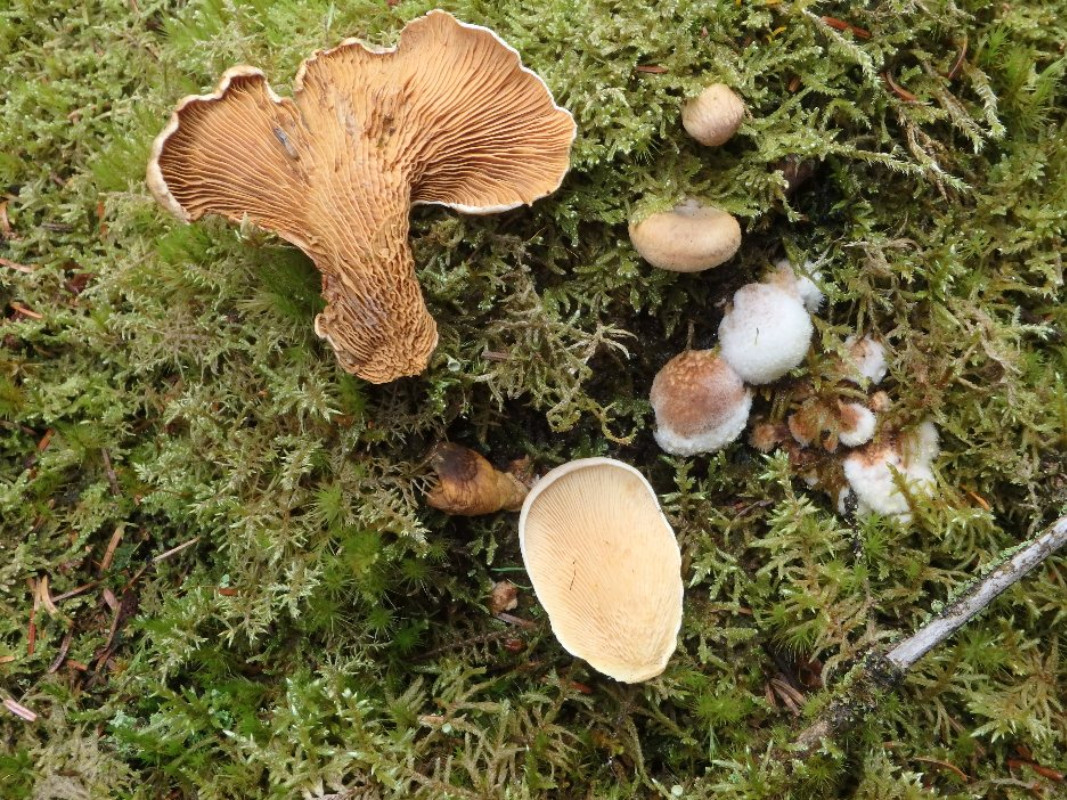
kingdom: Fungi
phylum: Basidiomycota
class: Agaricomycetes
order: Boletales
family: Tapinellaceae
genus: Tapinella
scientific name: Tapinella panuoides
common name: tømmer-viftesvamp
